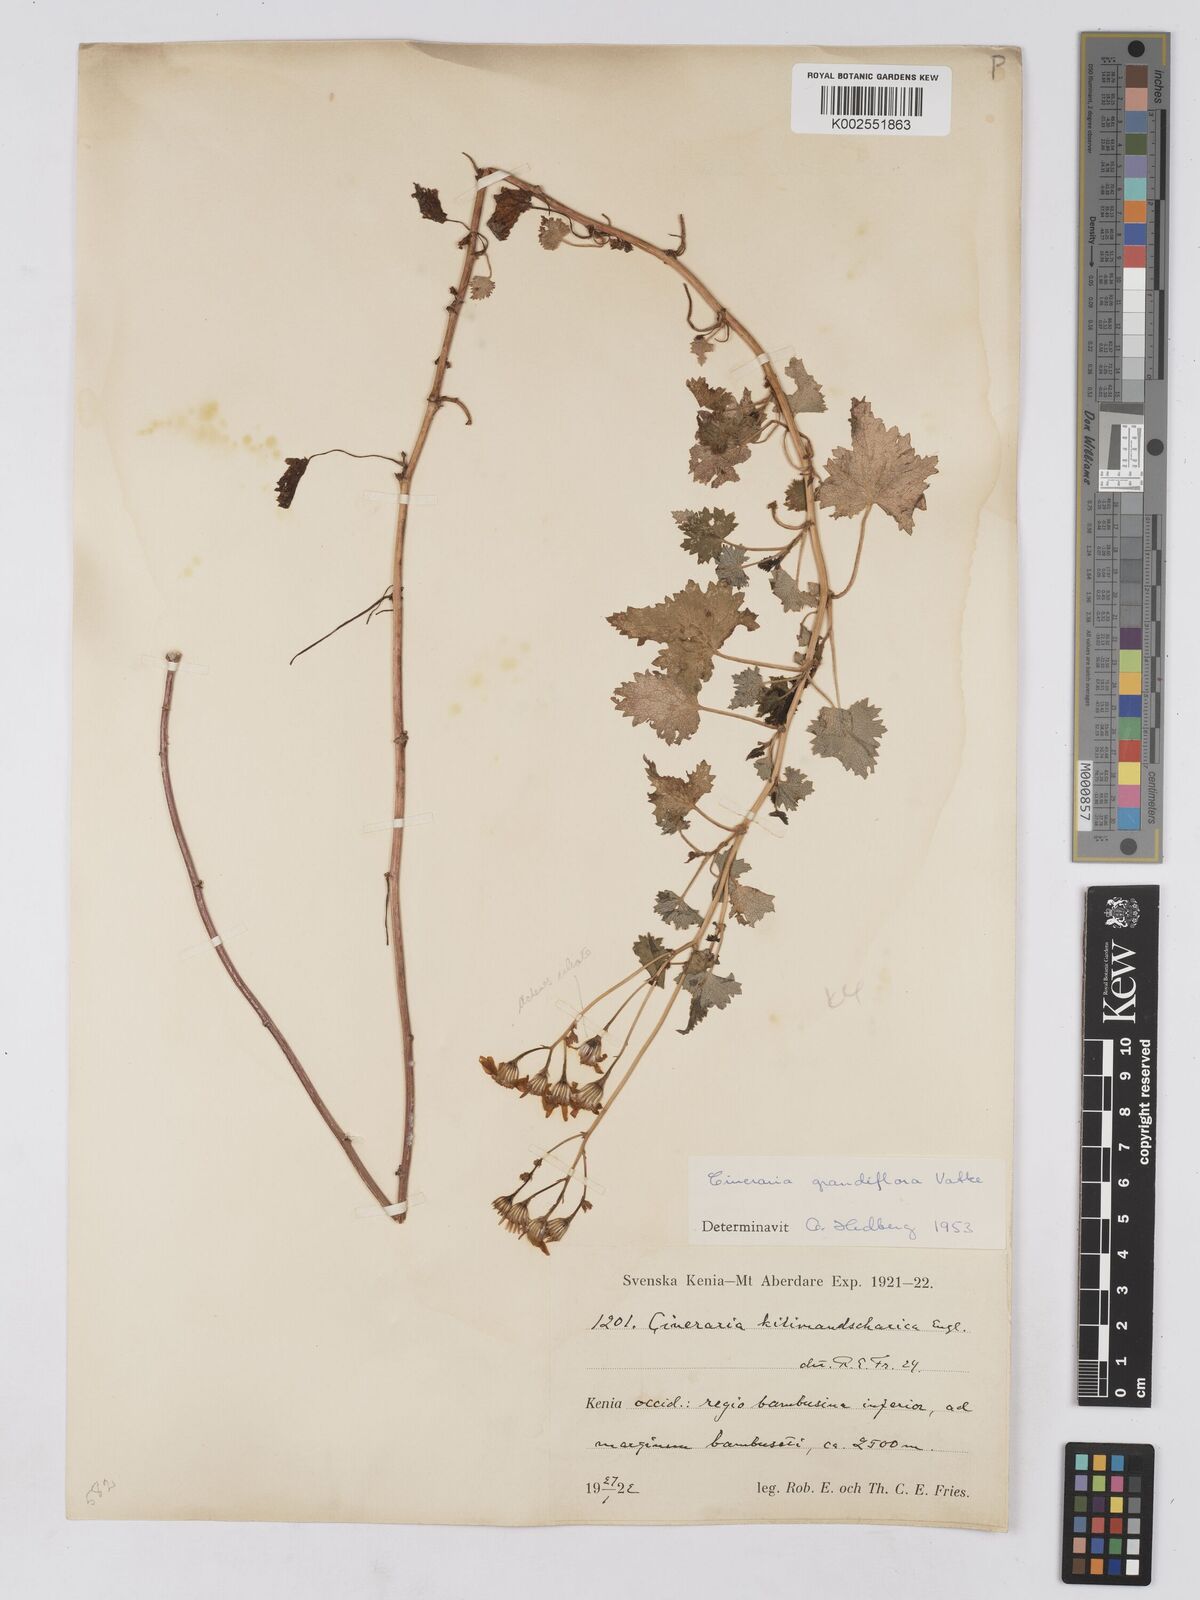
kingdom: Plantae
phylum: Tracheophyta
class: Magnoliopsida
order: Asterales
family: Asteraceae
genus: Cineraria
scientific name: Cineraria deltoidea
